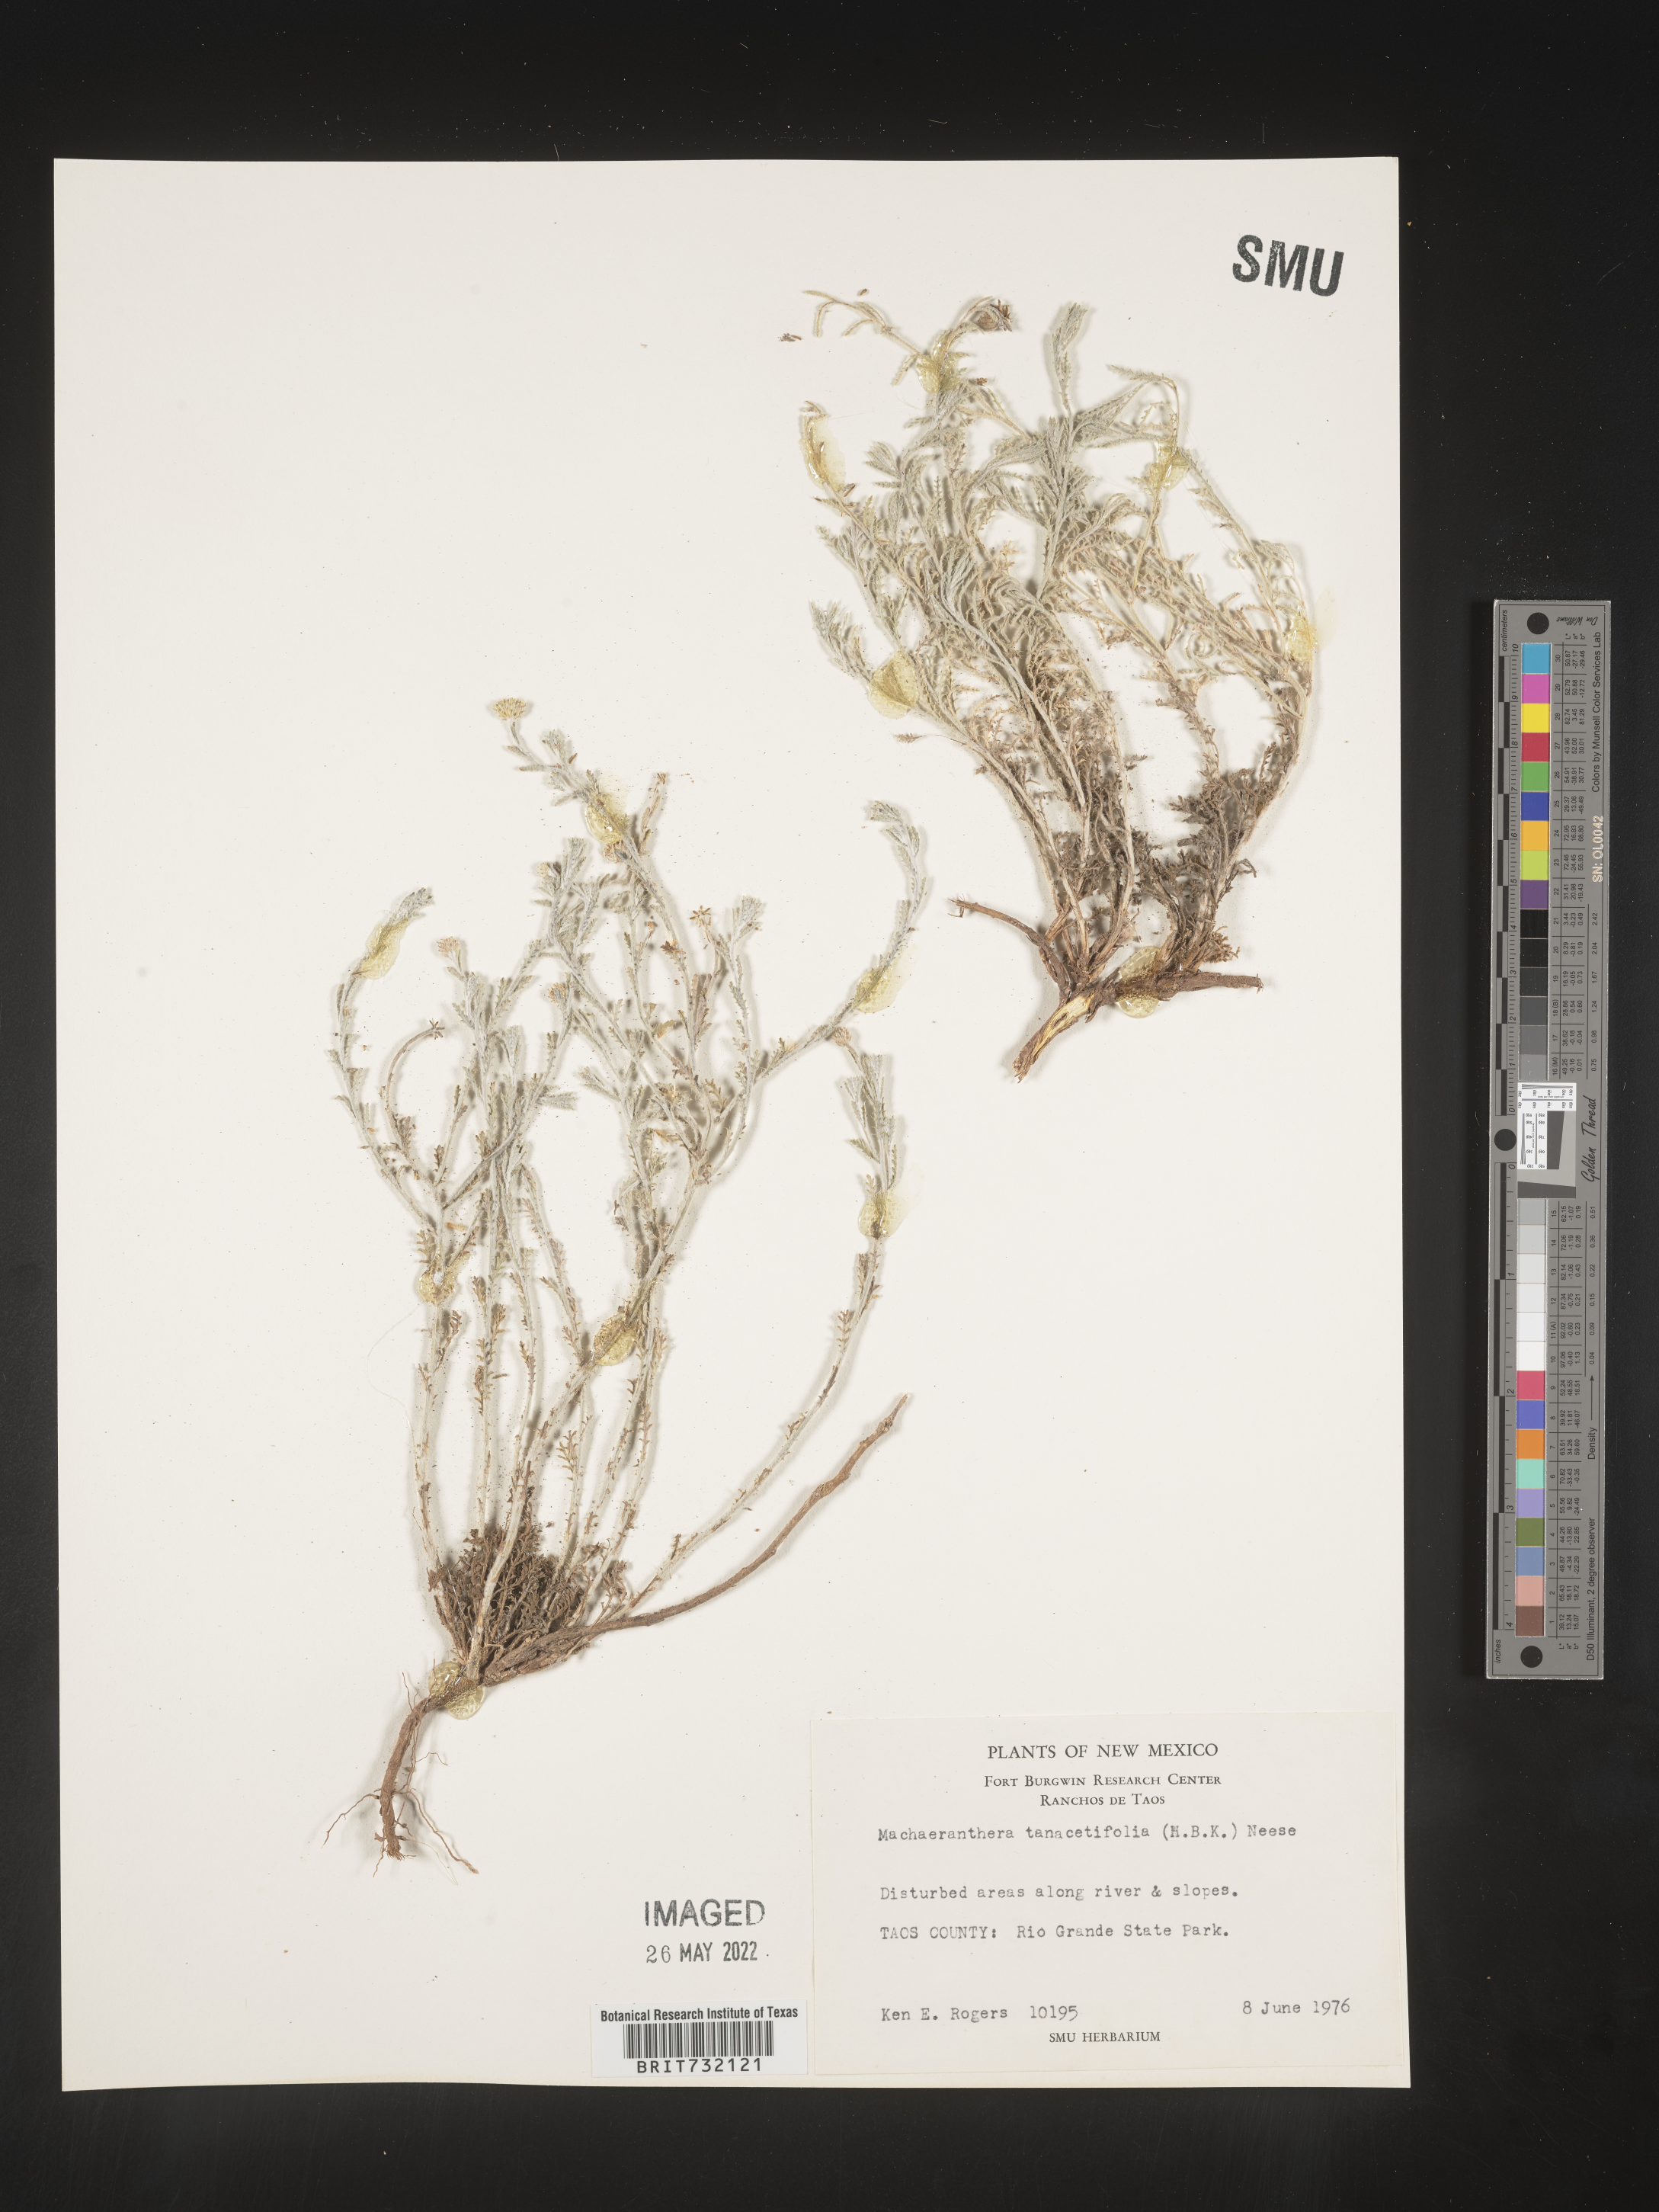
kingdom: Plantae
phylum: Tracheophyta
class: Magnoliopsida
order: Asterales
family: Asteraceae
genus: Machaeranthera
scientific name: Machaeranthera tanacetifolia
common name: Tansy-aster
